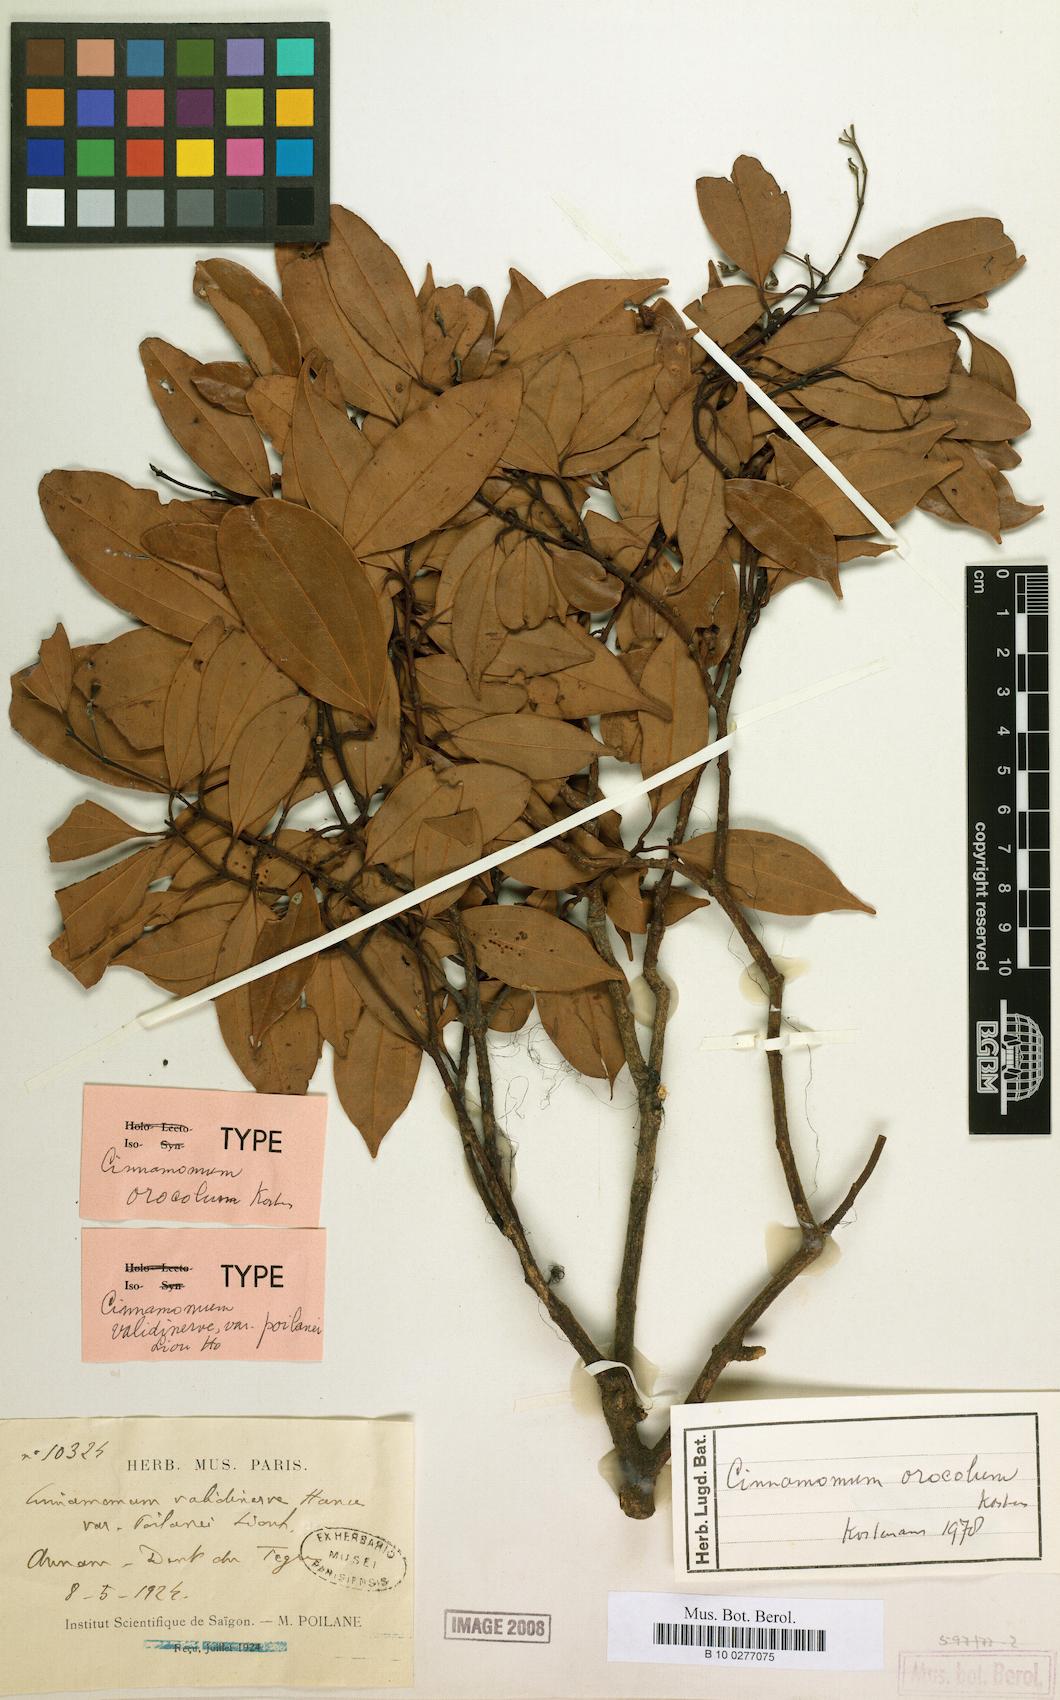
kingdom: Plantae
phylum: Tracheophyta
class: Magnoliopsida
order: Laurales
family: Lauraceae
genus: Cinnamomum
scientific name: Cinnamomum
